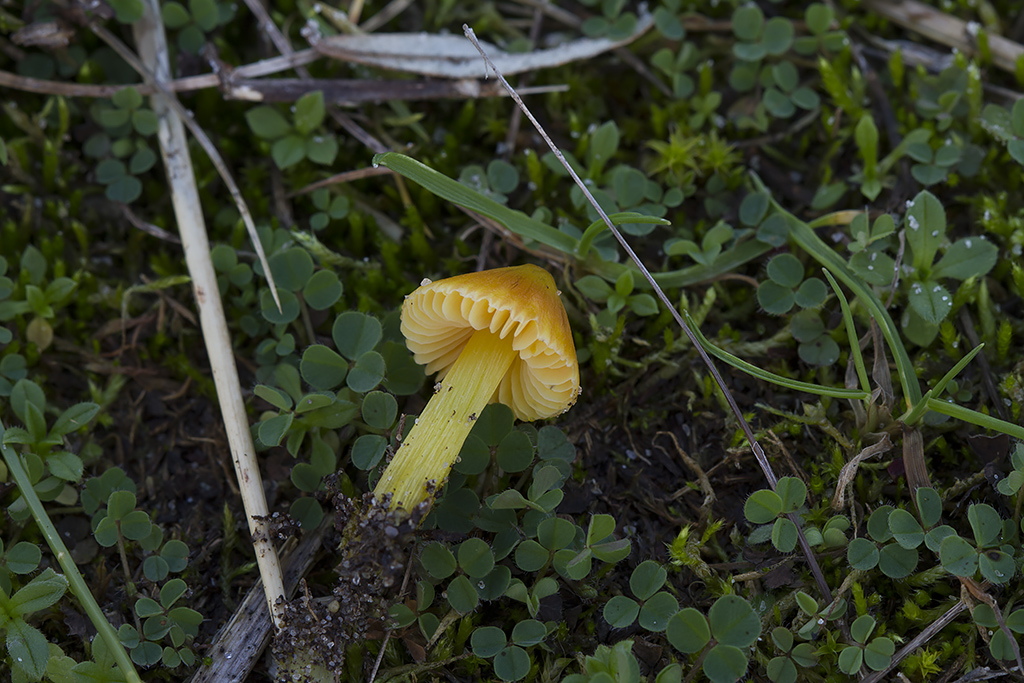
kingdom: Fungi
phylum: Basidiomycota
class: Agaricomycetes
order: Agaricales
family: Hygrophoraceae
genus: Hygrocybe
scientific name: Hygrocybe conica
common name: kegle-vokshat
